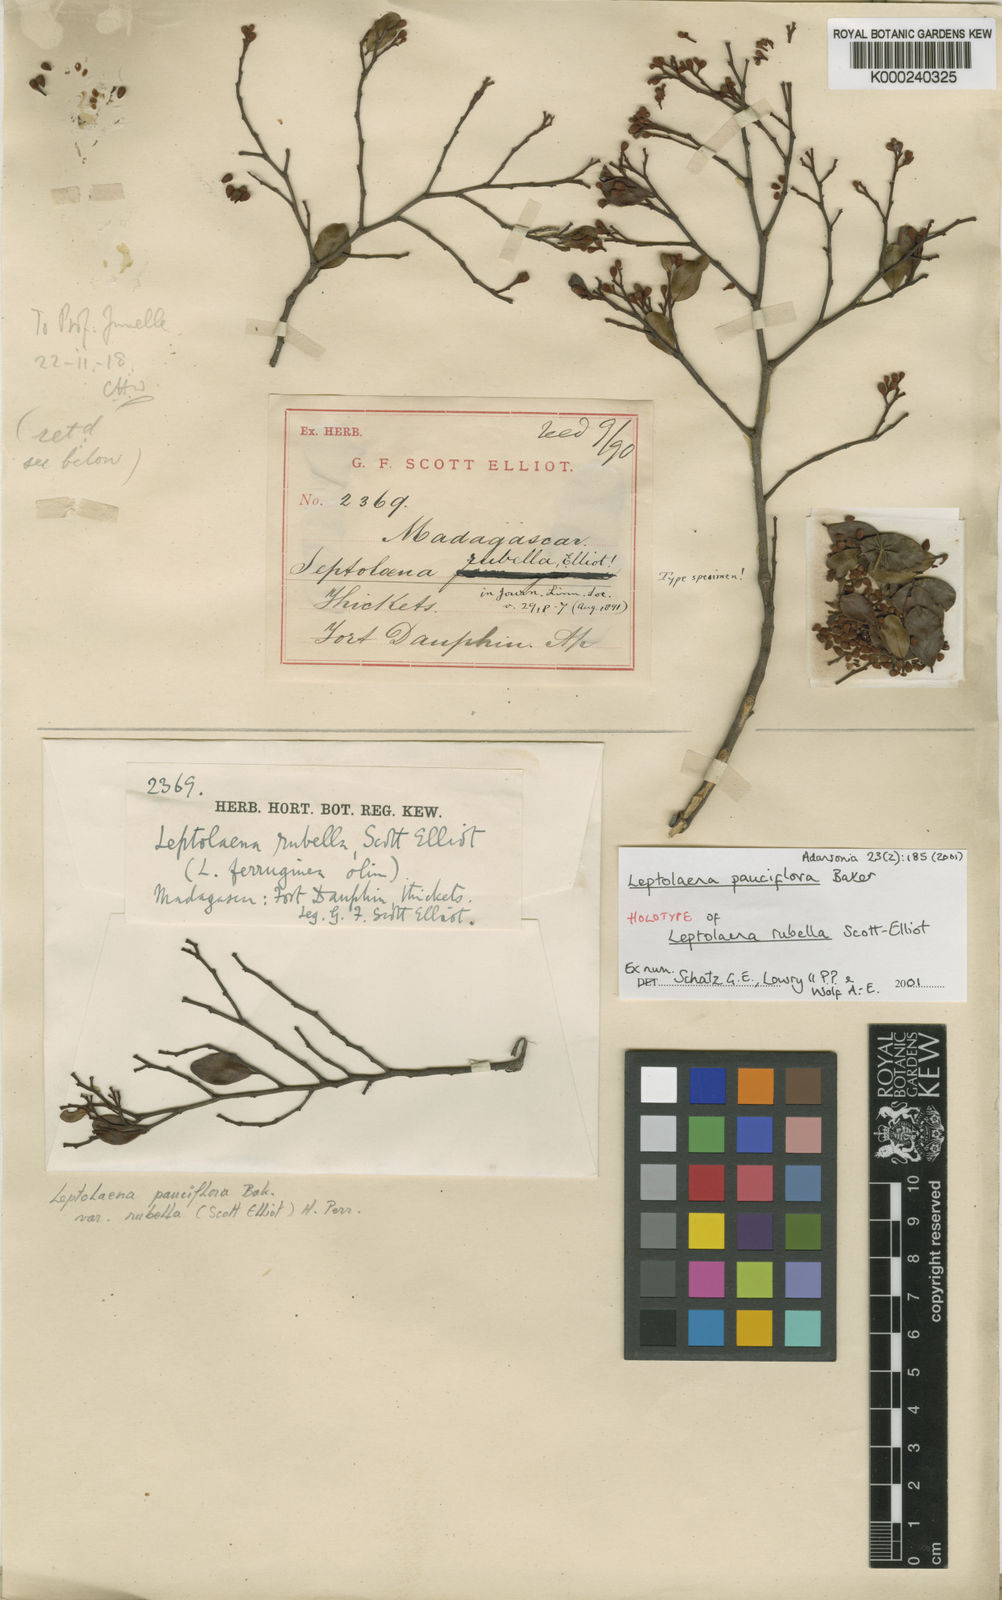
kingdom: Plantae
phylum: Tracheophyta
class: Magnoliopsida
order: Malvales
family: Sarcolaenaceae
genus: Leptolaena
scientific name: Leptolaena pauciflora
